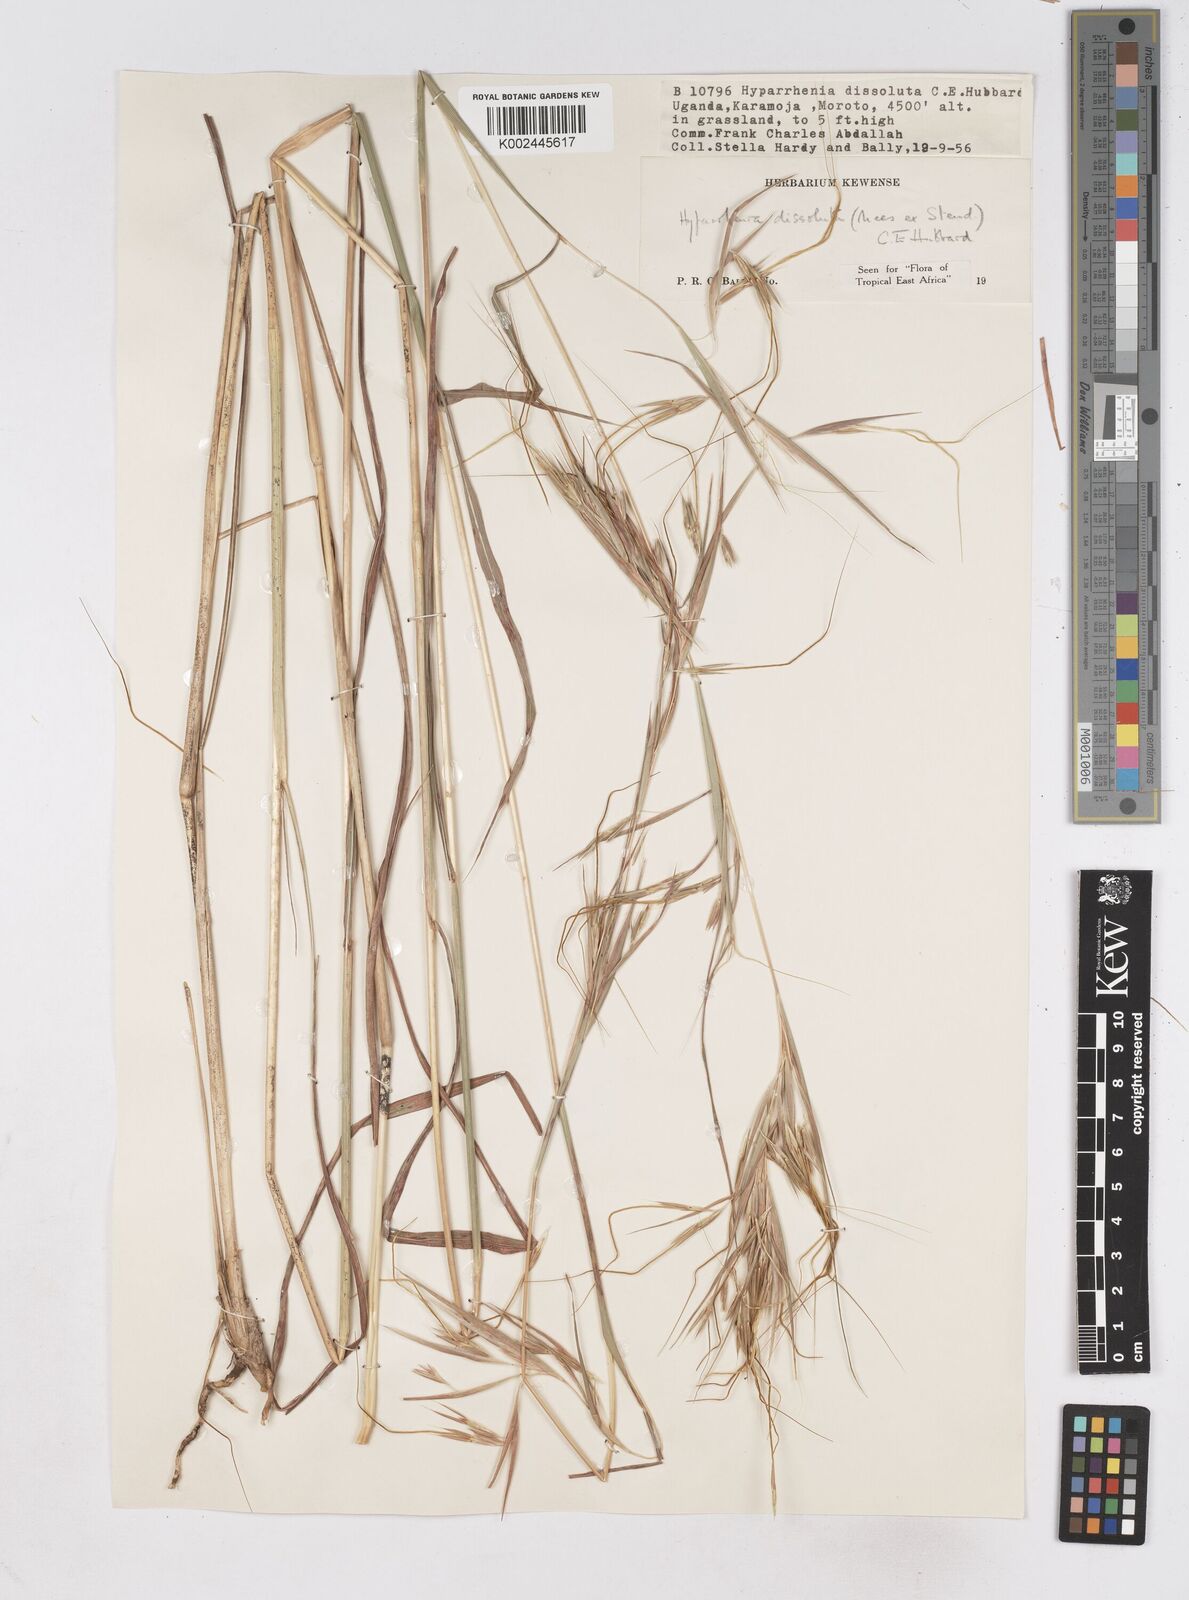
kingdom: Plantae
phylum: Tracheophyta
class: Liliopsida
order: Poales
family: Poaceae
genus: Hyperthelia
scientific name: Hyperthelia dissoluta
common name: Yellow thatching grass
